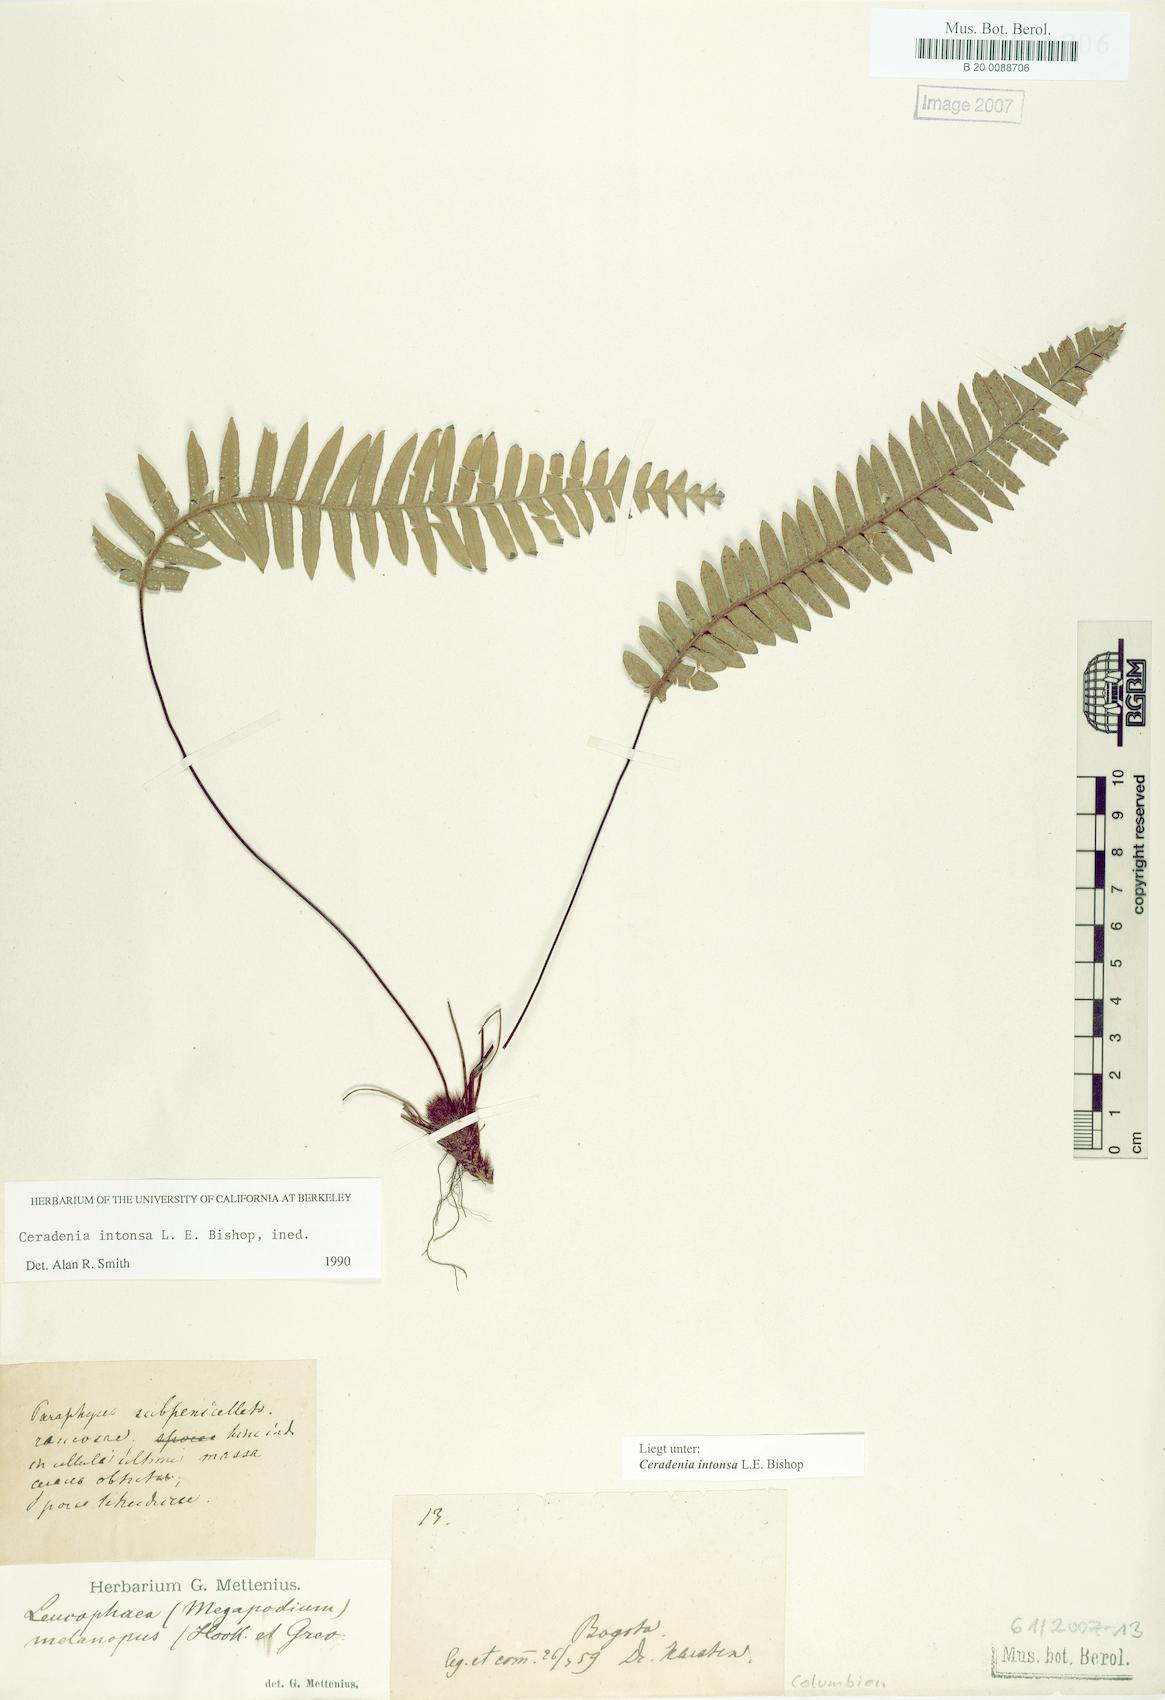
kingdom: Plantae
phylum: Tracheophyta
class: Polypodiopsida
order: Polypodiales
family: Polypodiaceae
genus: Ceradenia
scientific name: Ceradenia intonsa
